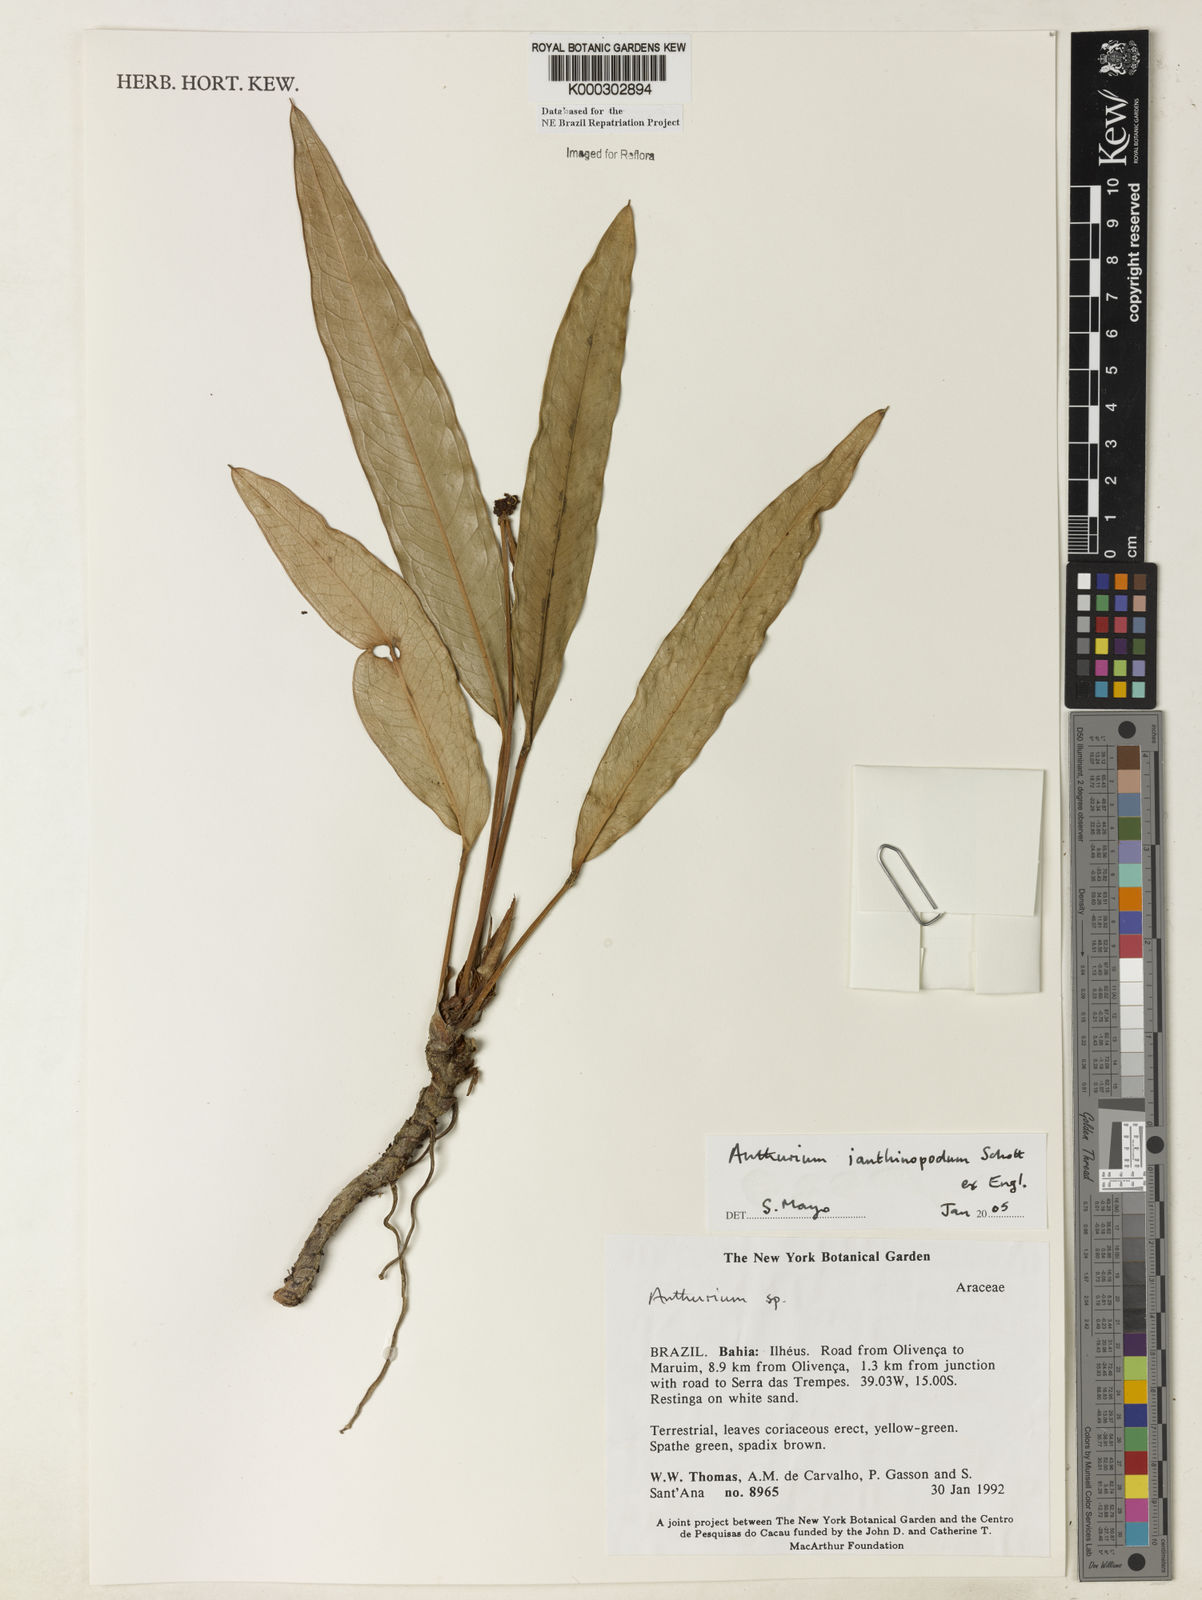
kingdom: Plantae
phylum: Tracheophyta
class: Liliopsida
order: Alismatales
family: Araceae
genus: Anthurium
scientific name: Anthurium ianthinopodum
